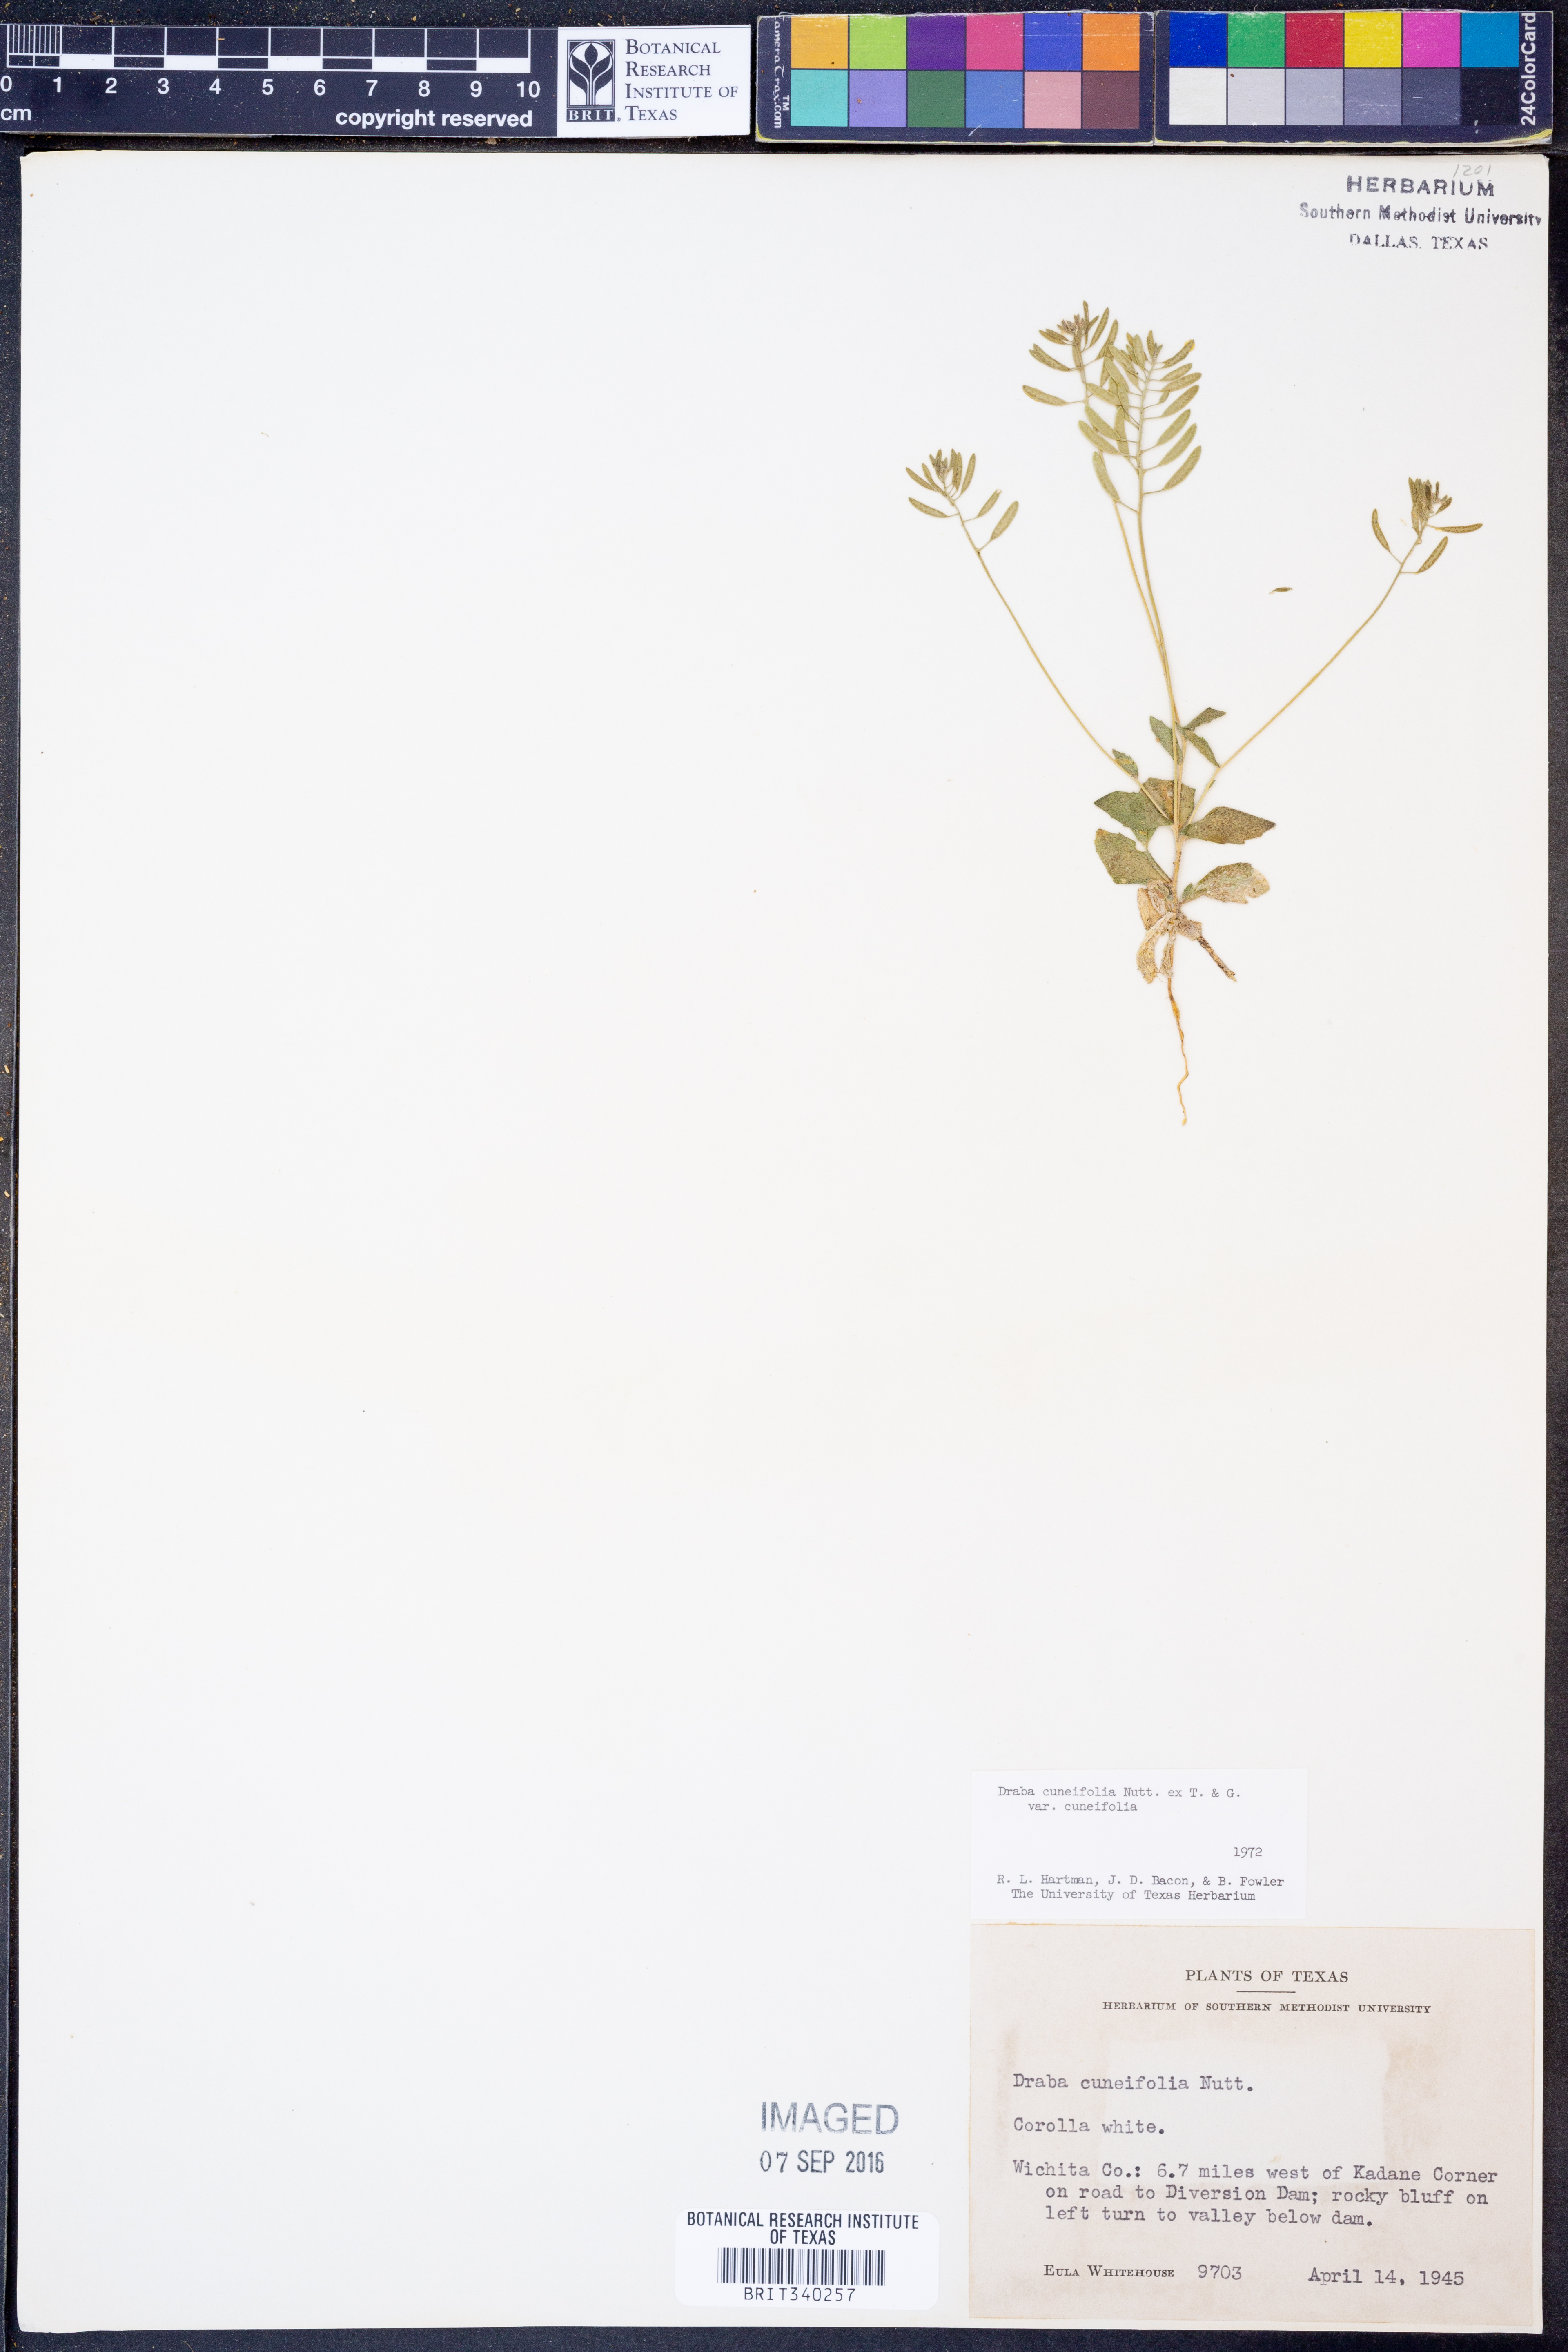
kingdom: Plantae
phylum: Tracheophyta
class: Magnoliopsida
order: Brassicales
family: Brassicaceae
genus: Tomostima
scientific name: Tomostima cuneifolia
